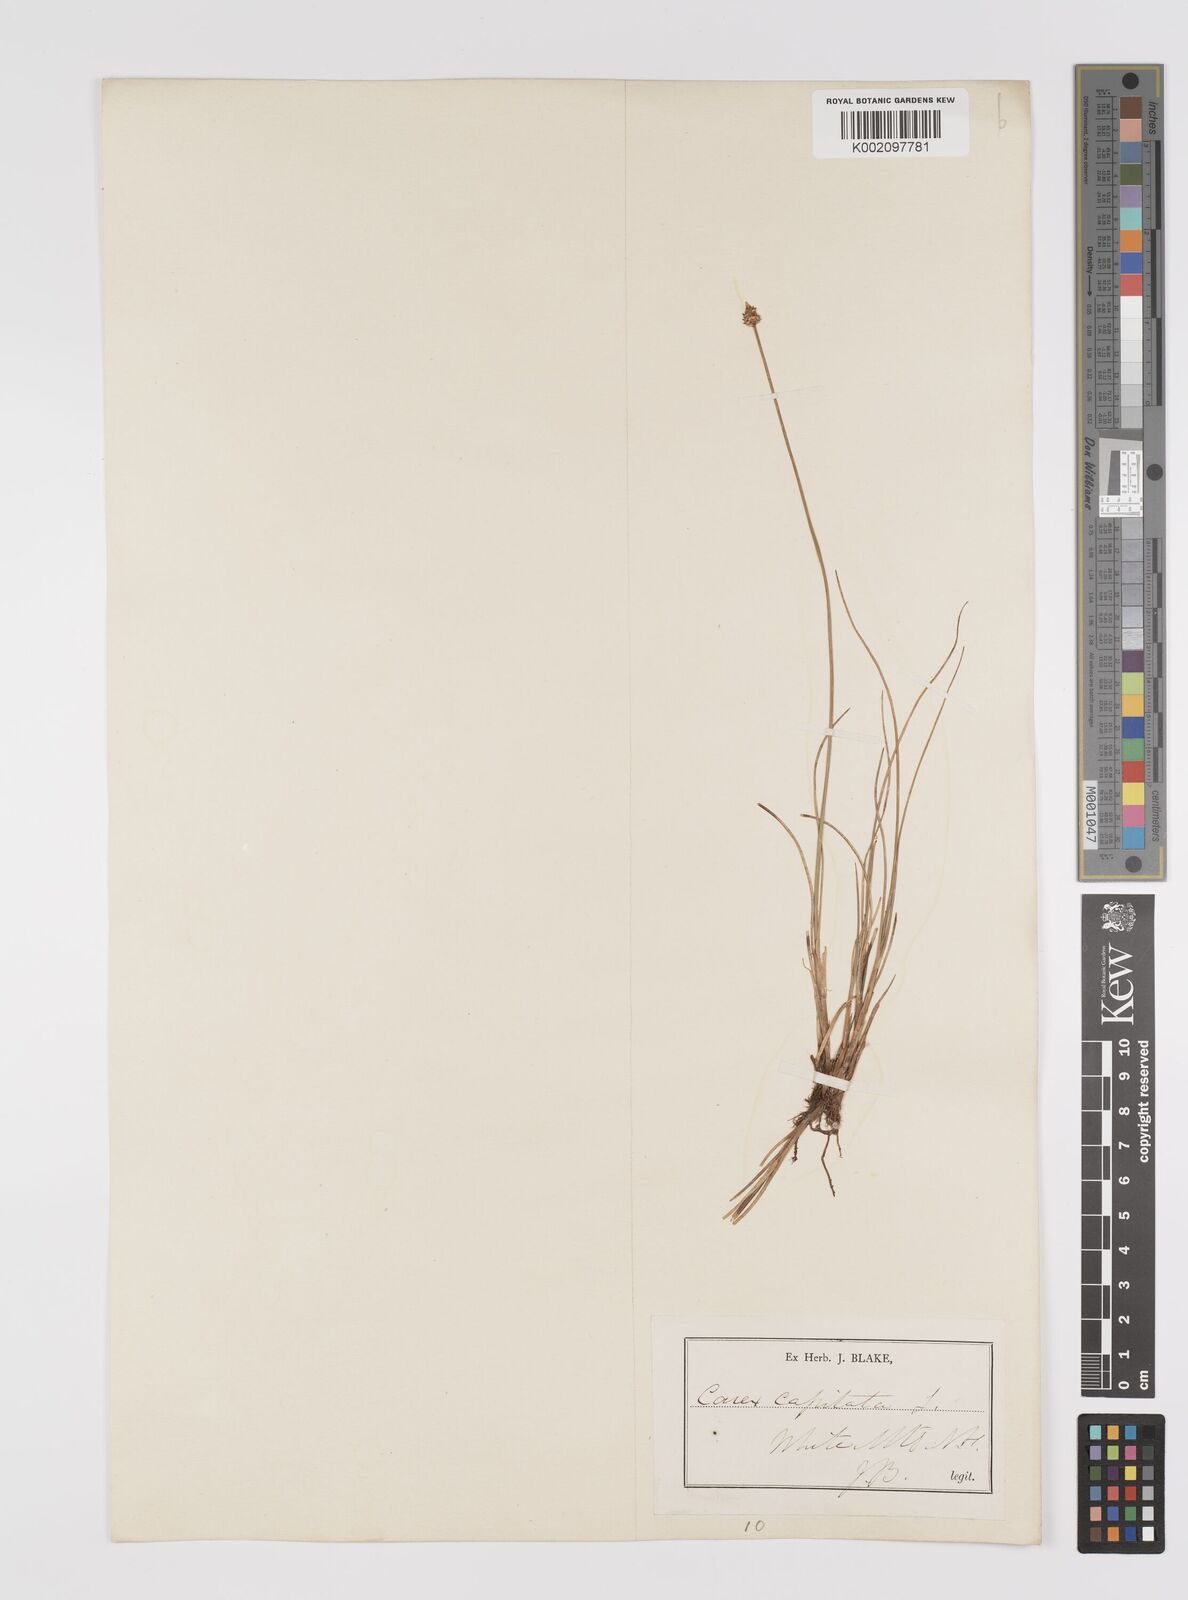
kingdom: Plantae
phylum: Tracheophyta
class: Liliopsida
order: Poales
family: Cyperaceae
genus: Carex
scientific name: Carex capitata
